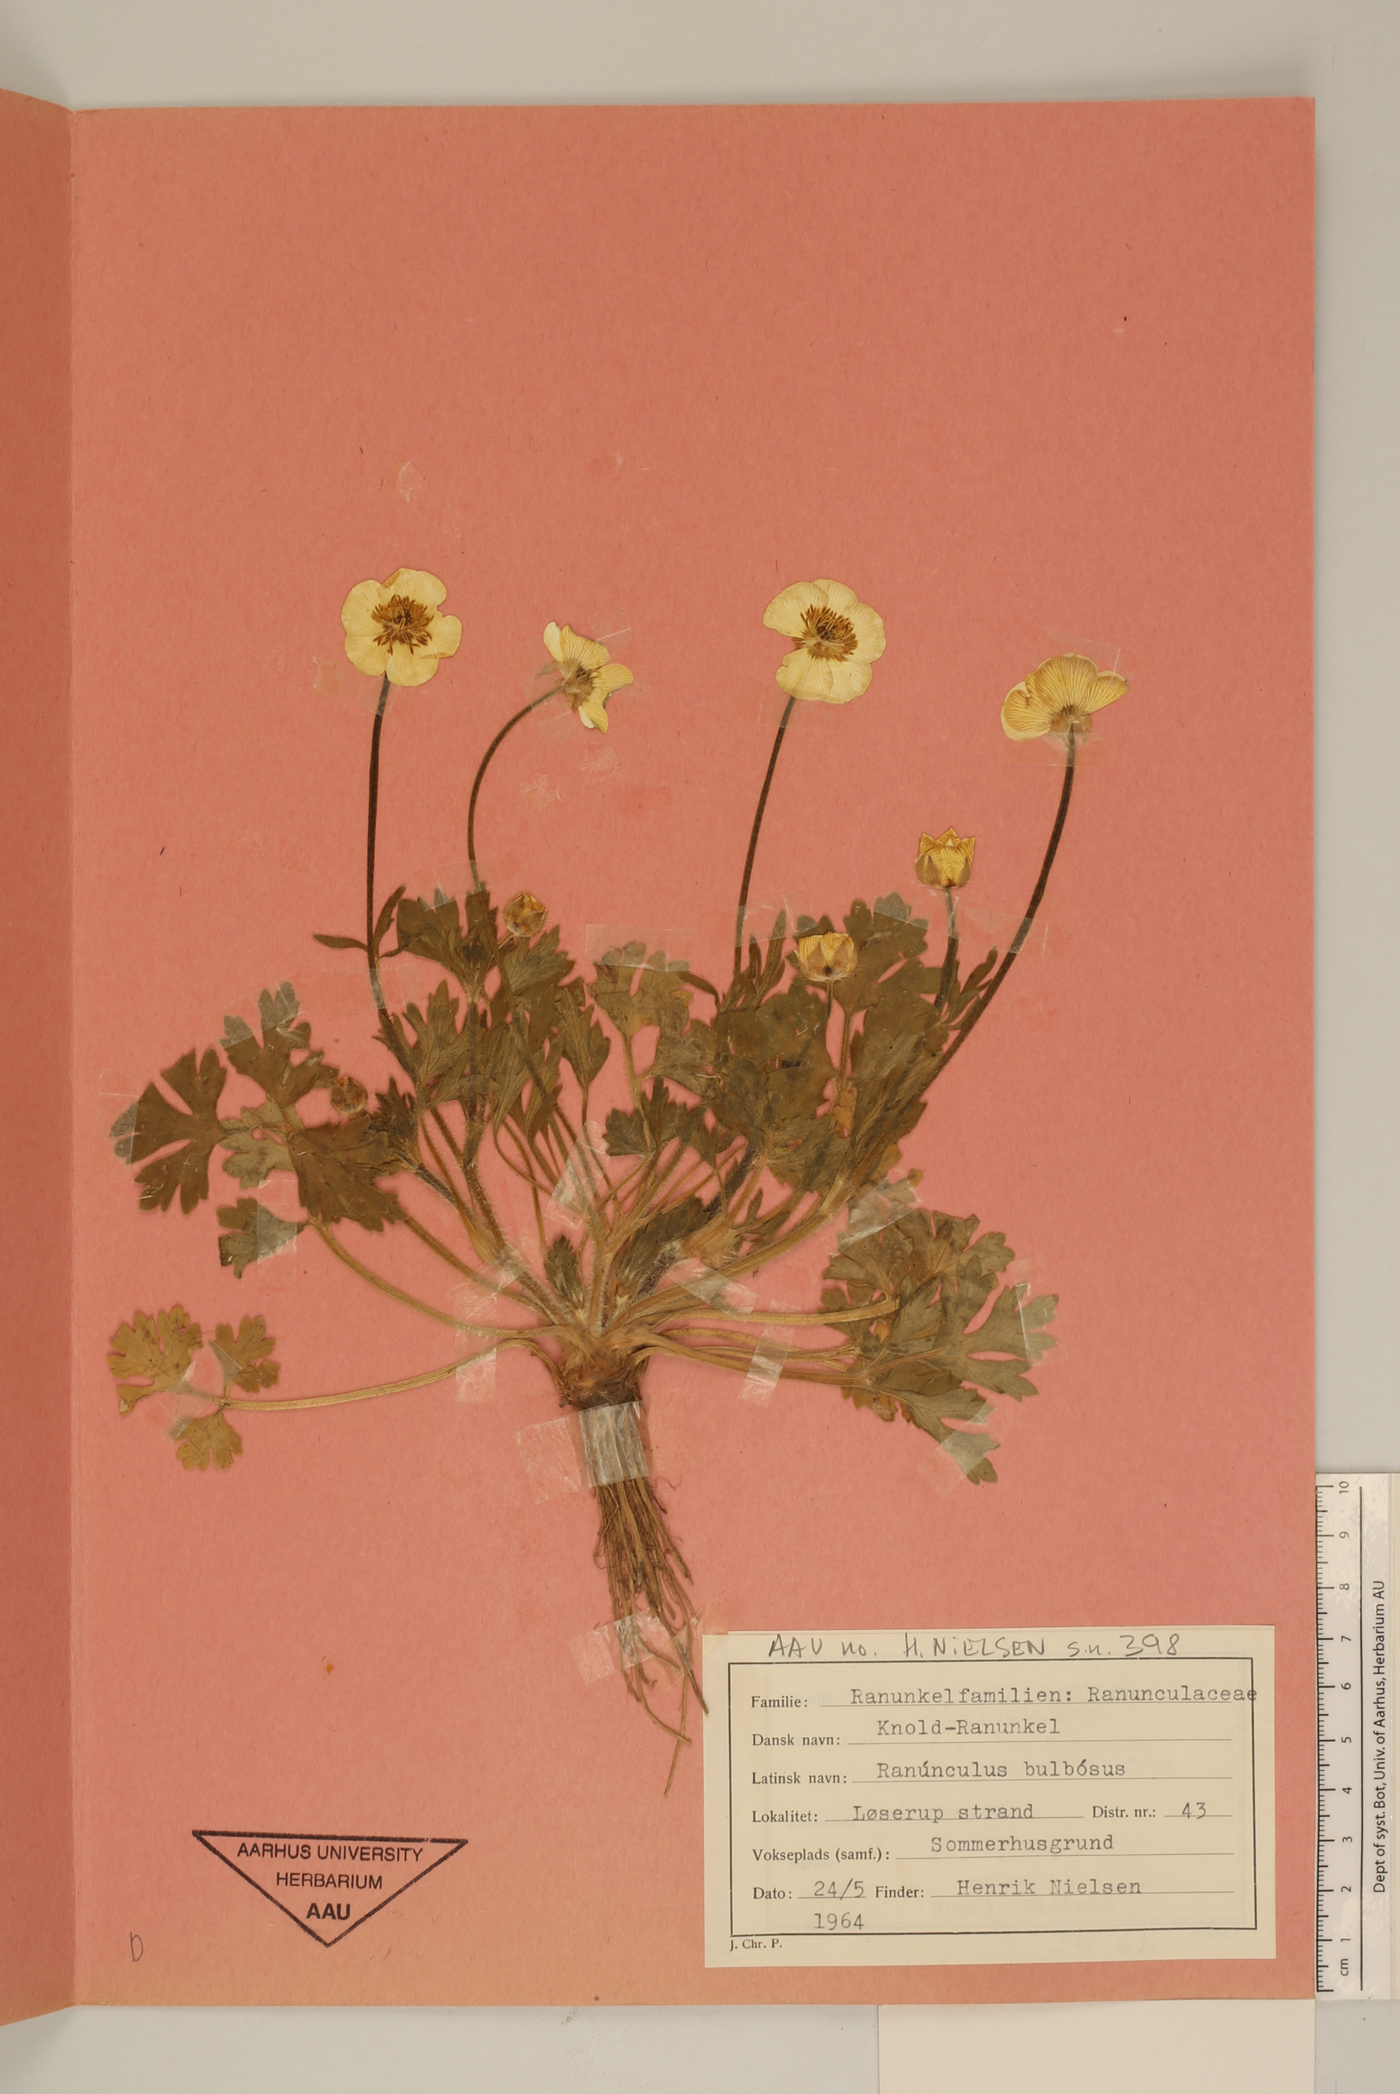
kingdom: Plantae
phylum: Tracheophyta
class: Magnoliopsida
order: Ranunculales
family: Ranunculaceae
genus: Ranunculus
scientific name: Ranunculus bulbosus
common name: Bulbous buttercup
